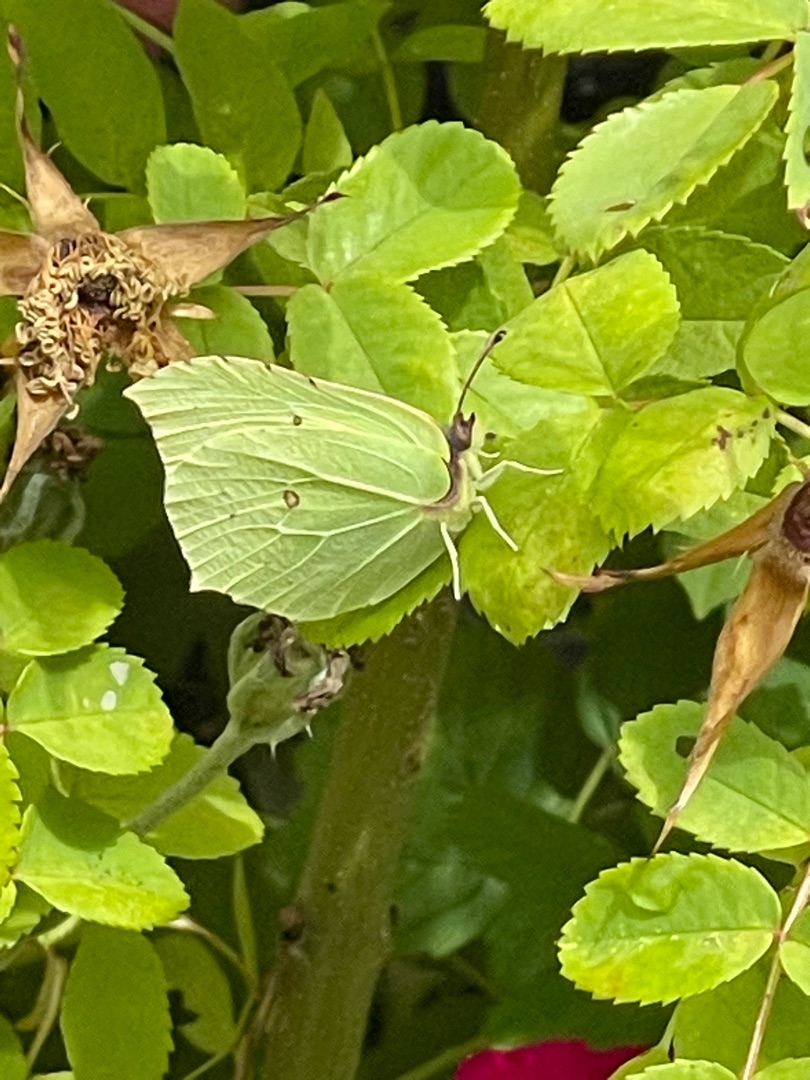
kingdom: Animalia
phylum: Arthropoda
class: Insecta
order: Lepidoptera
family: Pieridae
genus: Gonepteryx
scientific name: Gonepteryx rhamni
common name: Citronsommerfugl
